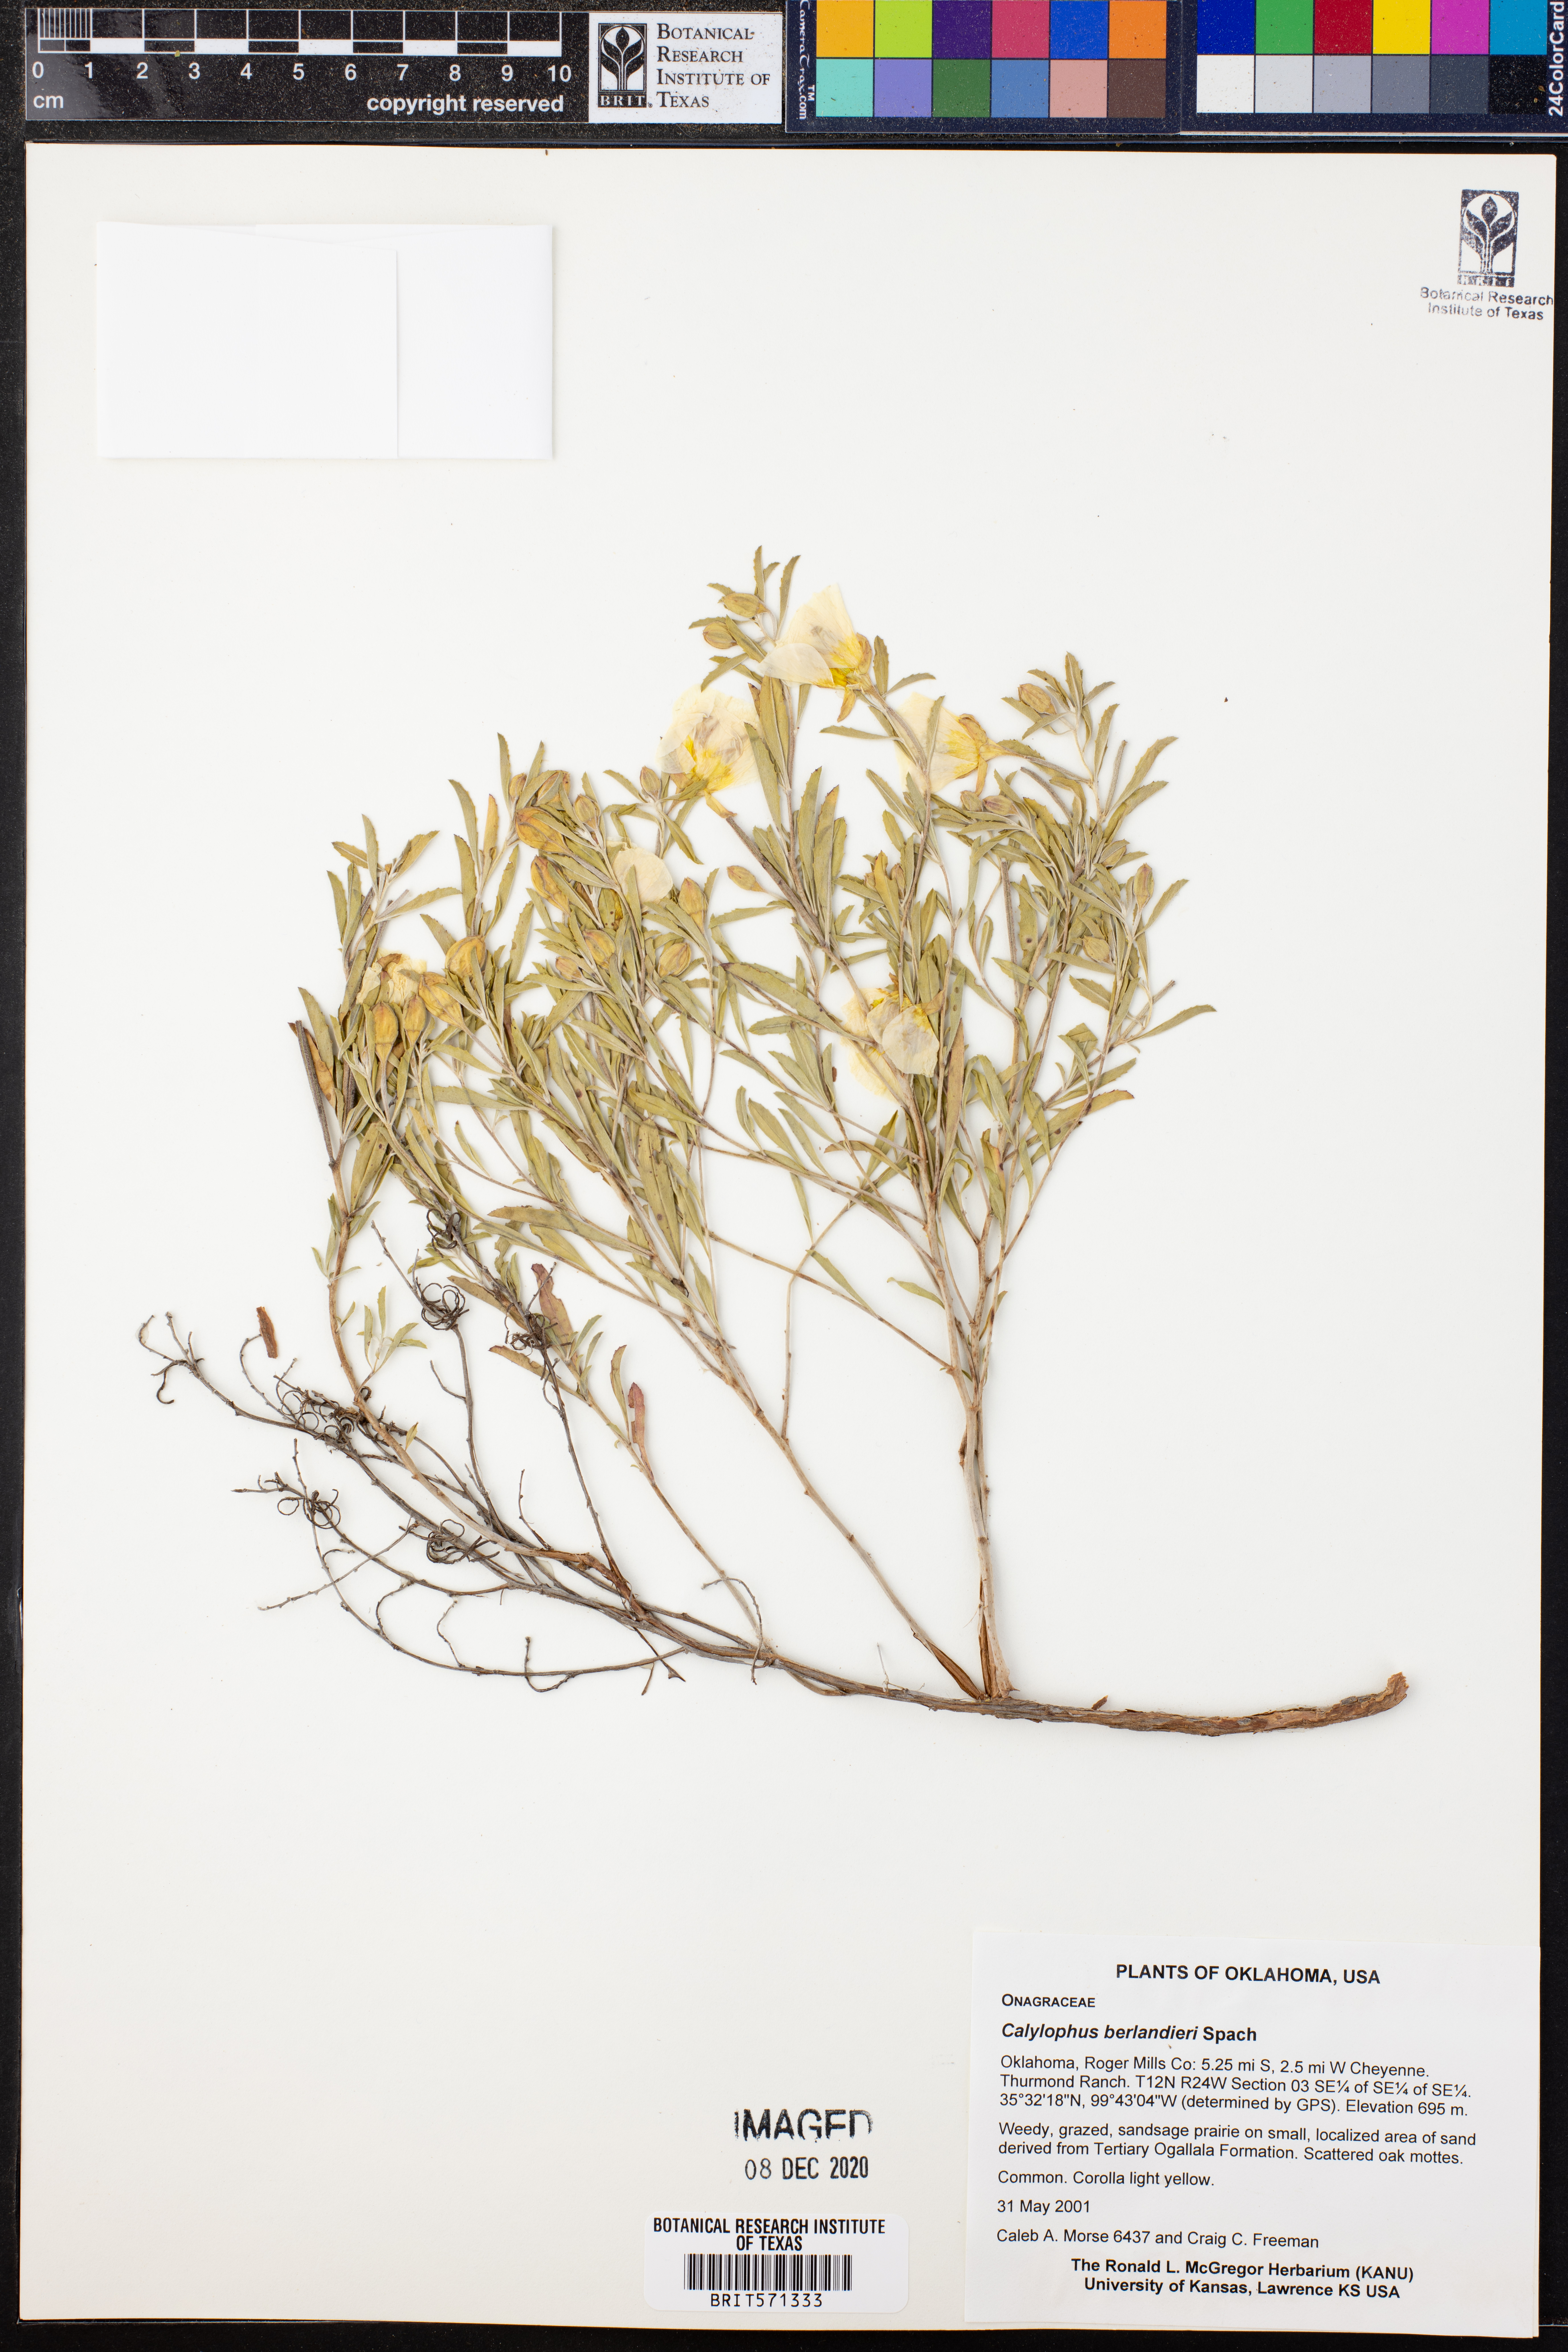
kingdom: Plantae
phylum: Tracheophyta
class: Magnoliopsida
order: Myrtales
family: Onagraceae
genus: Oenothera
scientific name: Oenothera capillifolia
